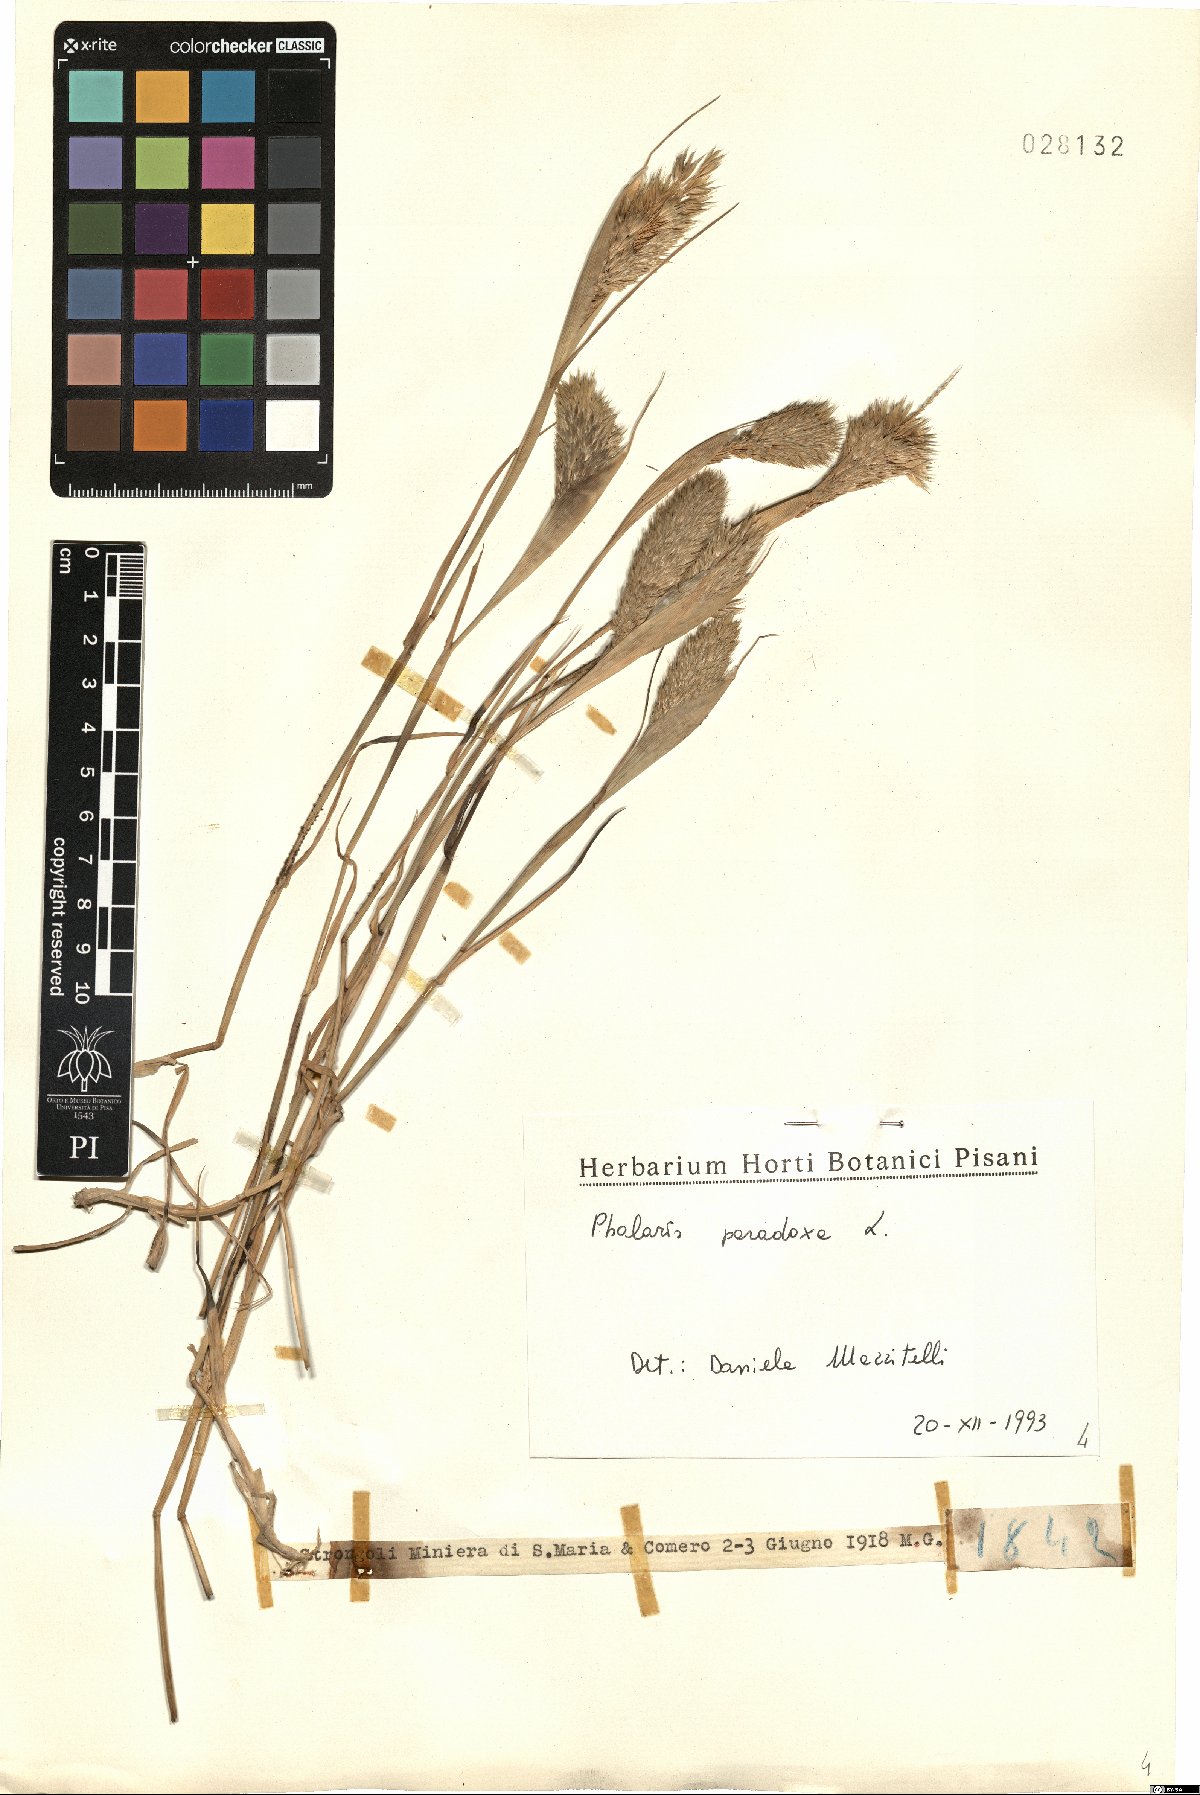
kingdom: Plantae
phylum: Tracheophyta
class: Liliopsida
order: Poales
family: Poaceae
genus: Phalaris
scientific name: Phalaris paradoxa
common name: Awned canary-grass
